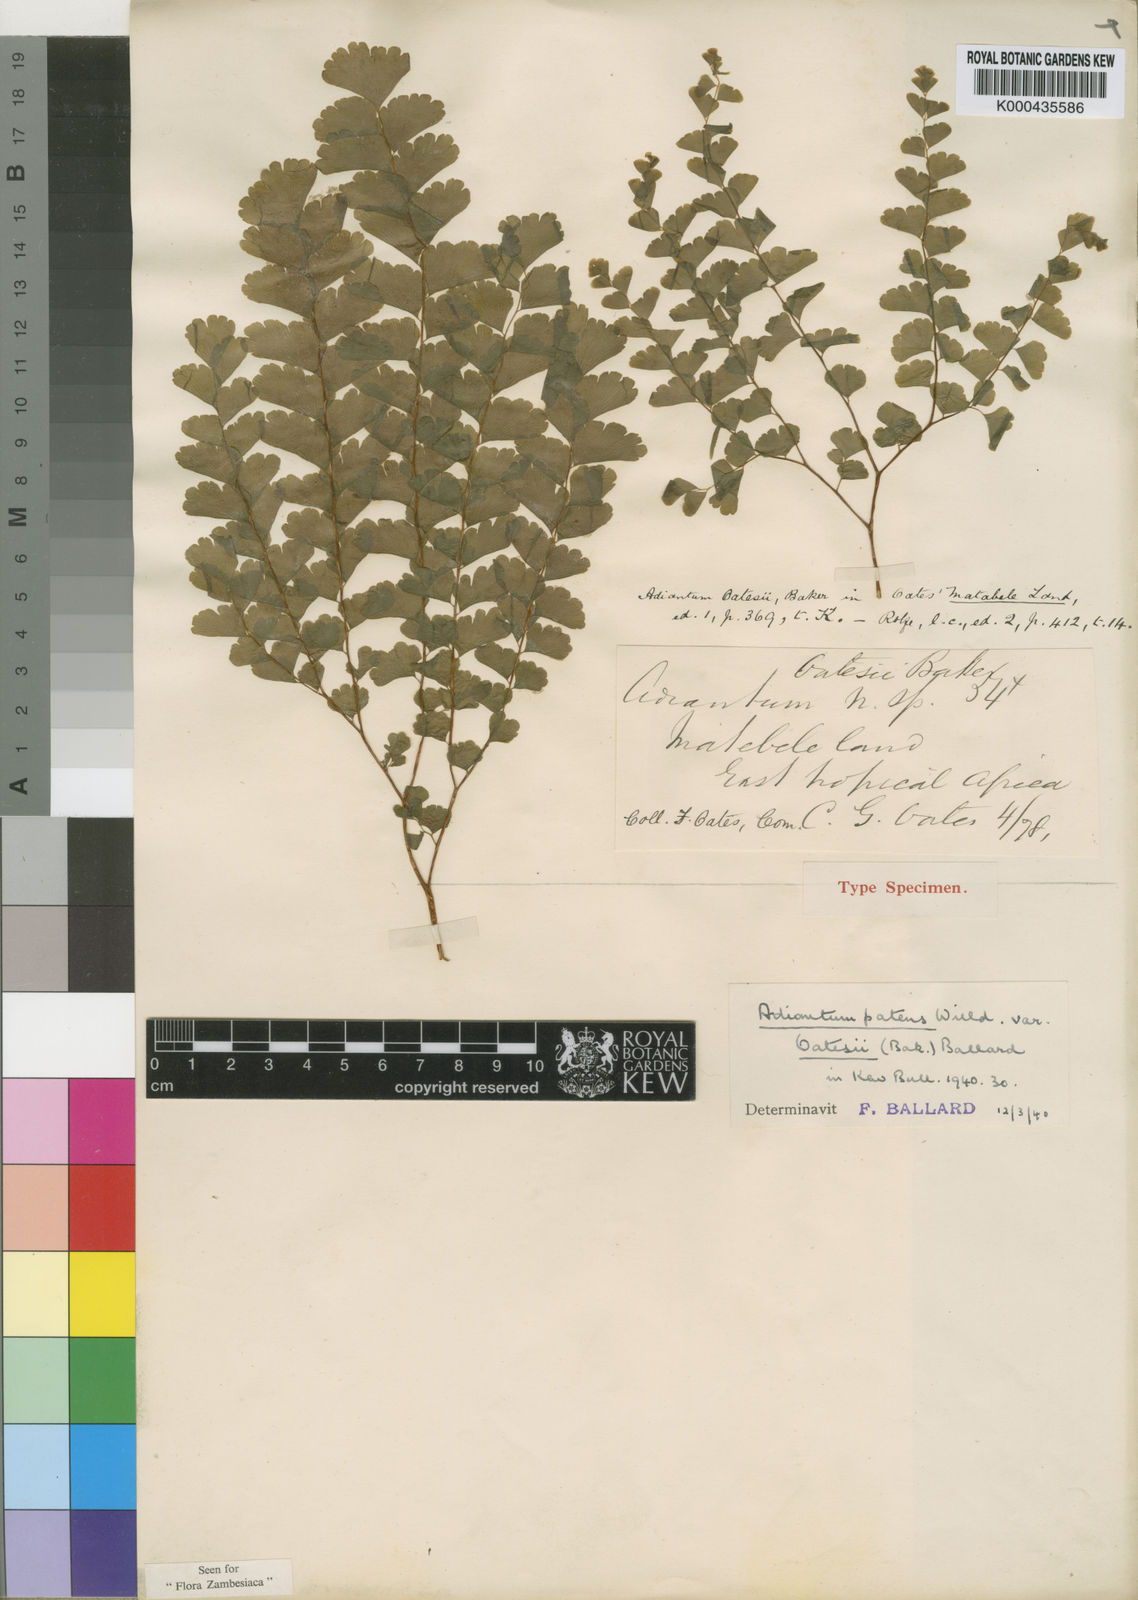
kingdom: Plantae
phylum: Tracheophyta
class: Polypodiopsida
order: Polypodiales
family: Pteridaceae
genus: Adiantum
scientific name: Adiantum patens
